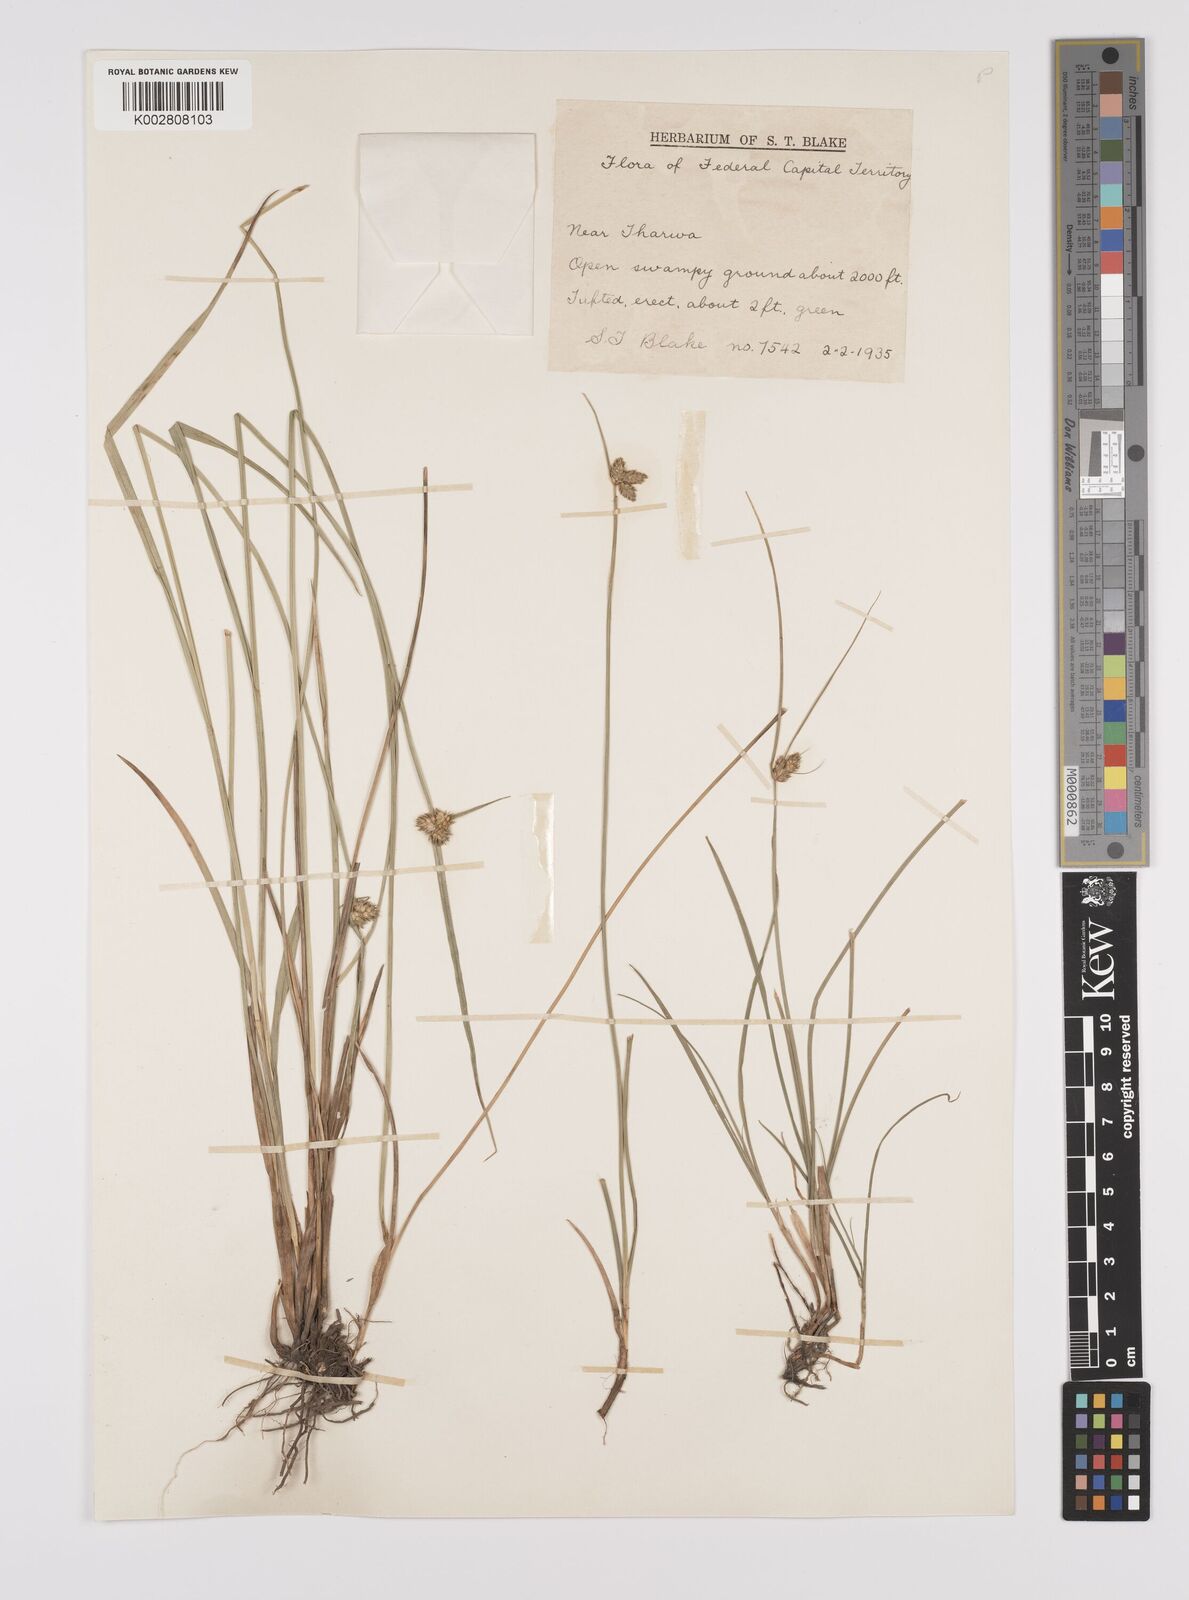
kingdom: Plantae
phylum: Tracheophyta
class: Liliopsida
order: Poales
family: Cyperaceae
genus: Carex
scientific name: Carex inversa
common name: Knob sedge
